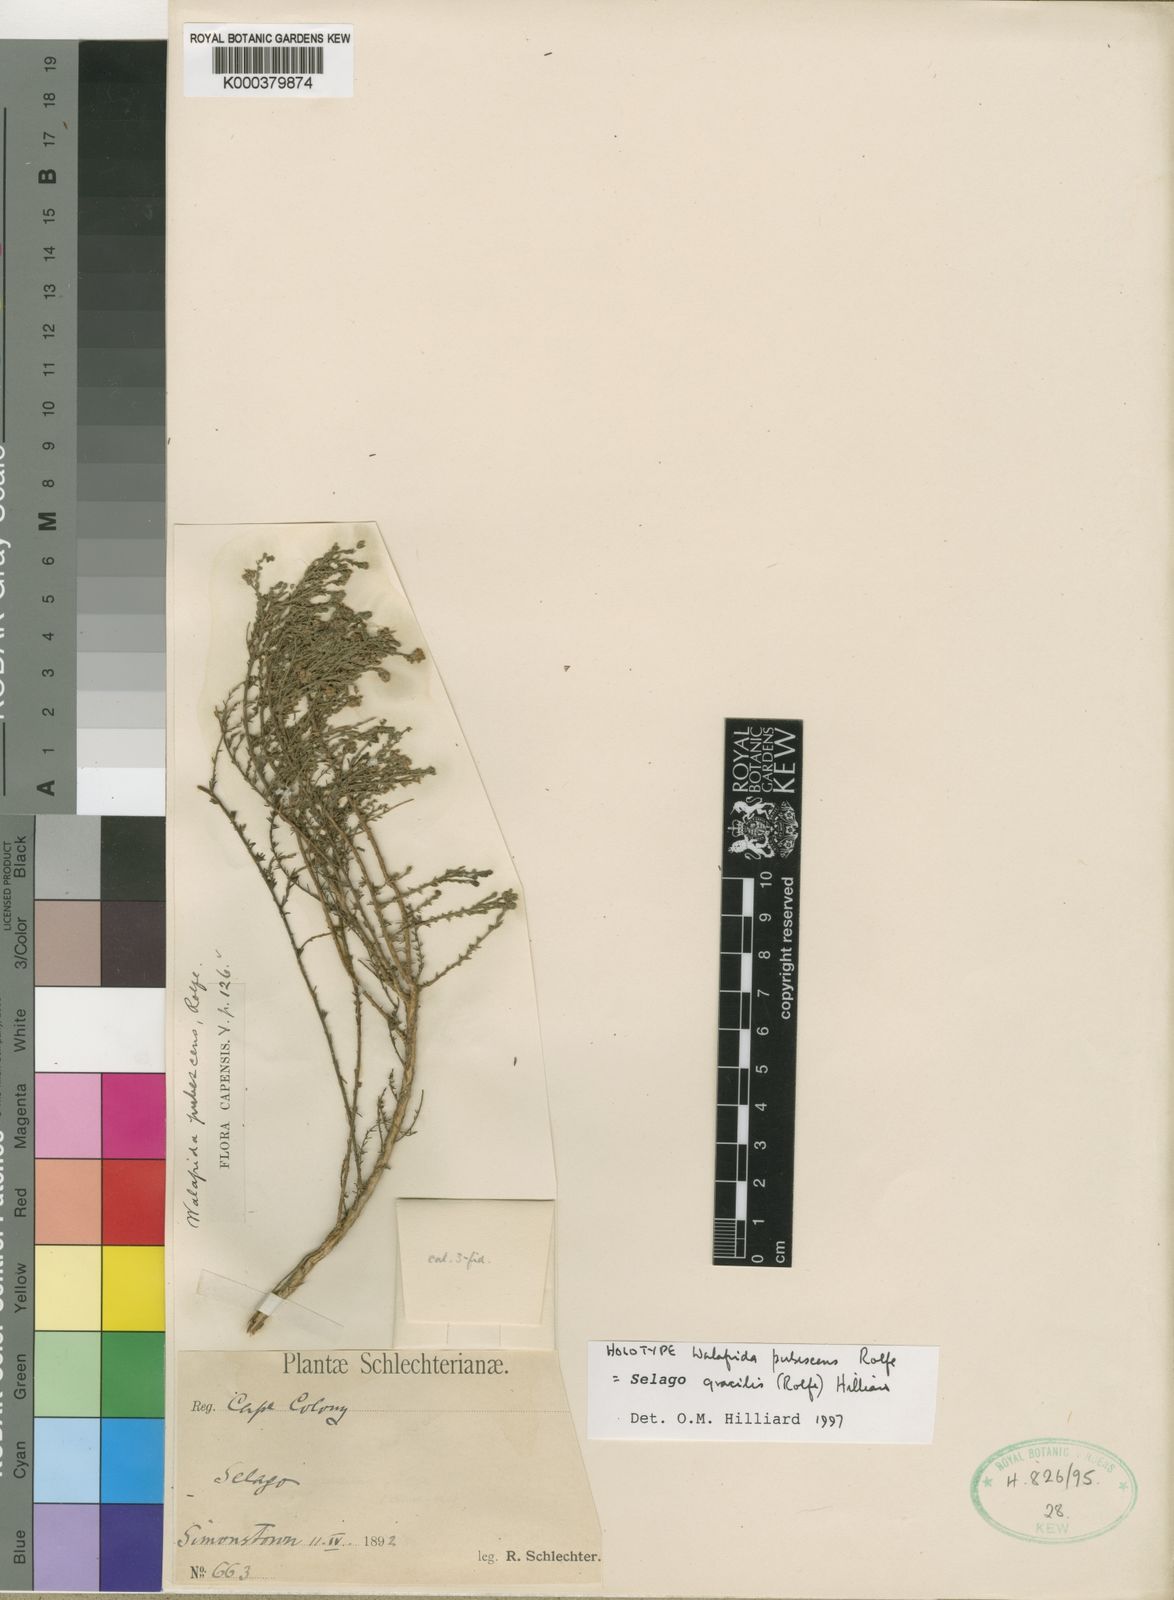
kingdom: Plantae
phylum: Tracheophyta
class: Magnoliopsida
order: Lamiales
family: Scrophulariaceae
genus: Selago
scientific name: Selago gracilis
